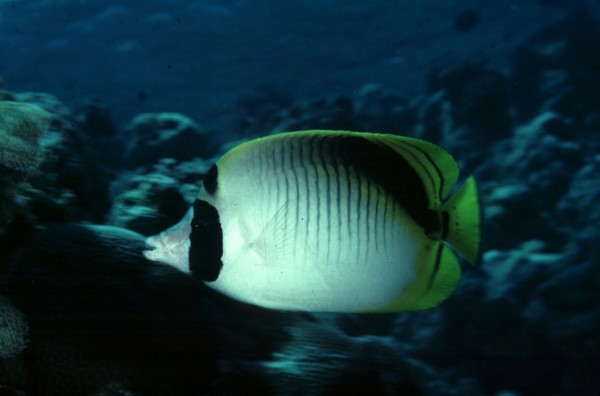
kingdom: Animalia
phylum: Chordata
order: Perciformes
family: Chaetodontidae
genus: Chaetodon
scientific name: Chaetodon oxycephalus
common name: Spot-nape butterflyfish
